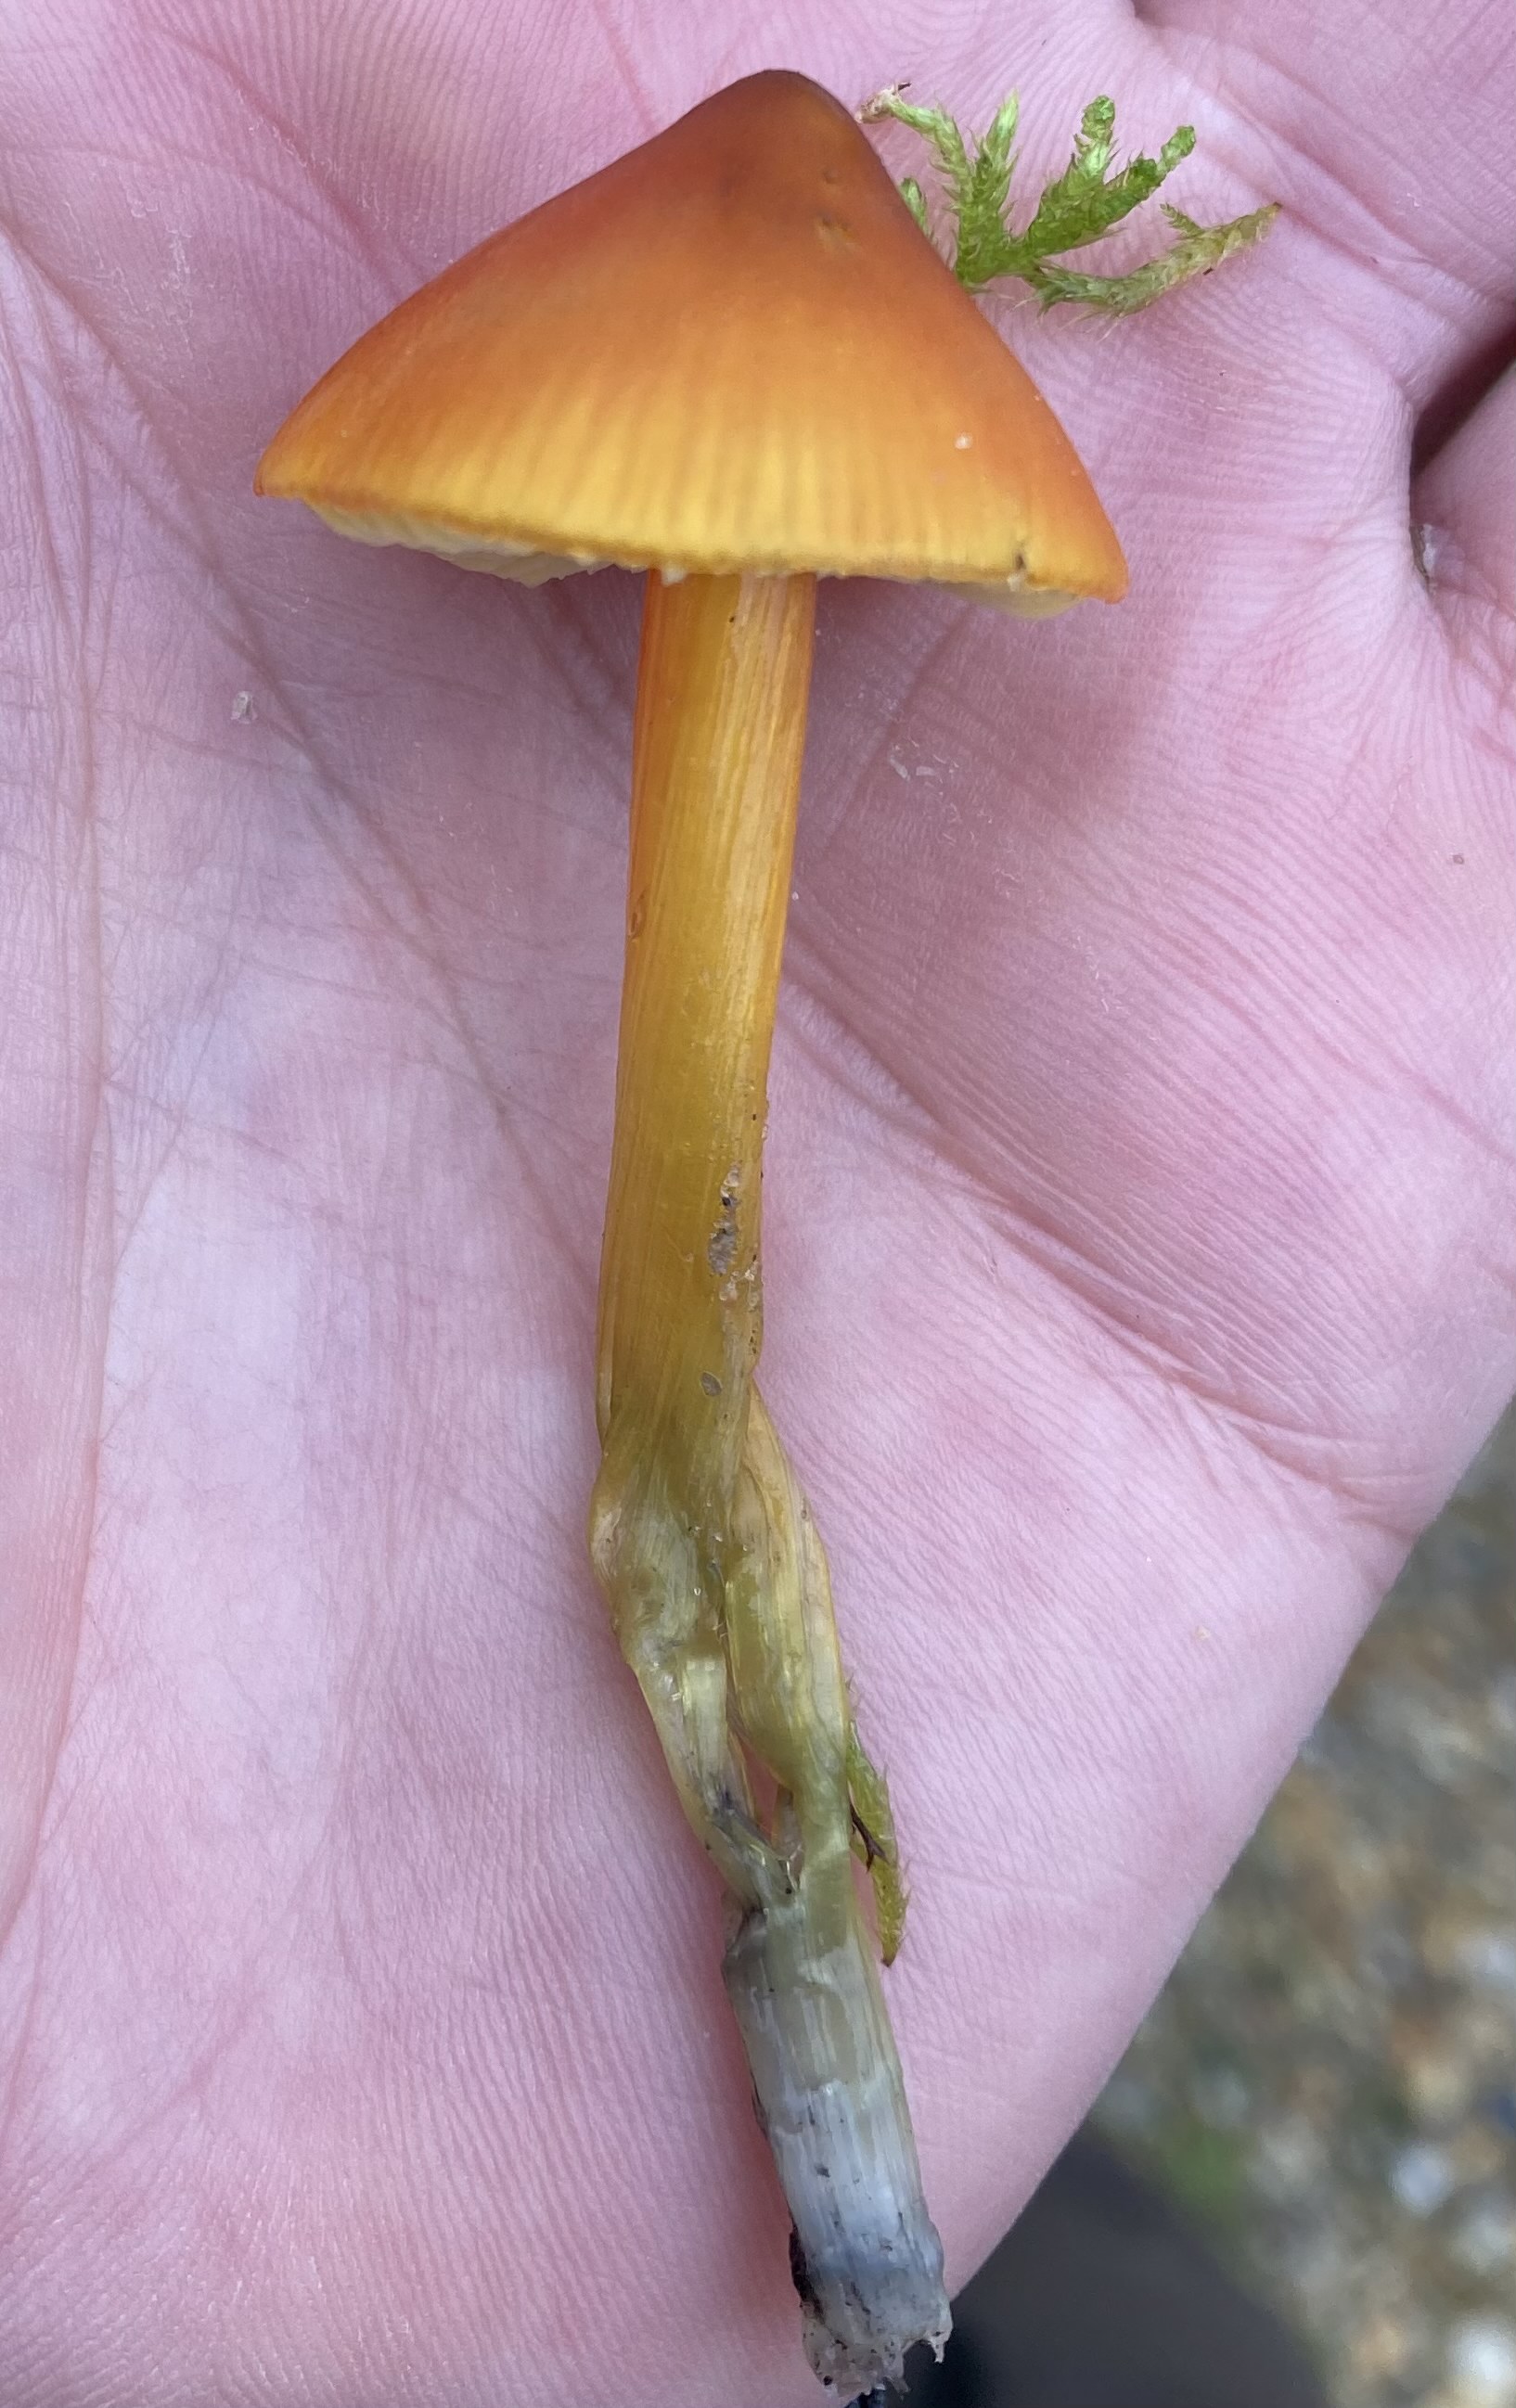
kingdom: Fungi
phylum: Basidiomycota
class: Agaricomycetes
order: Agaricales
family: Hygrophoraceae
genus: Hygrocybe
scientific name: Hygrocybe conica
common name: kegle-vokshat
